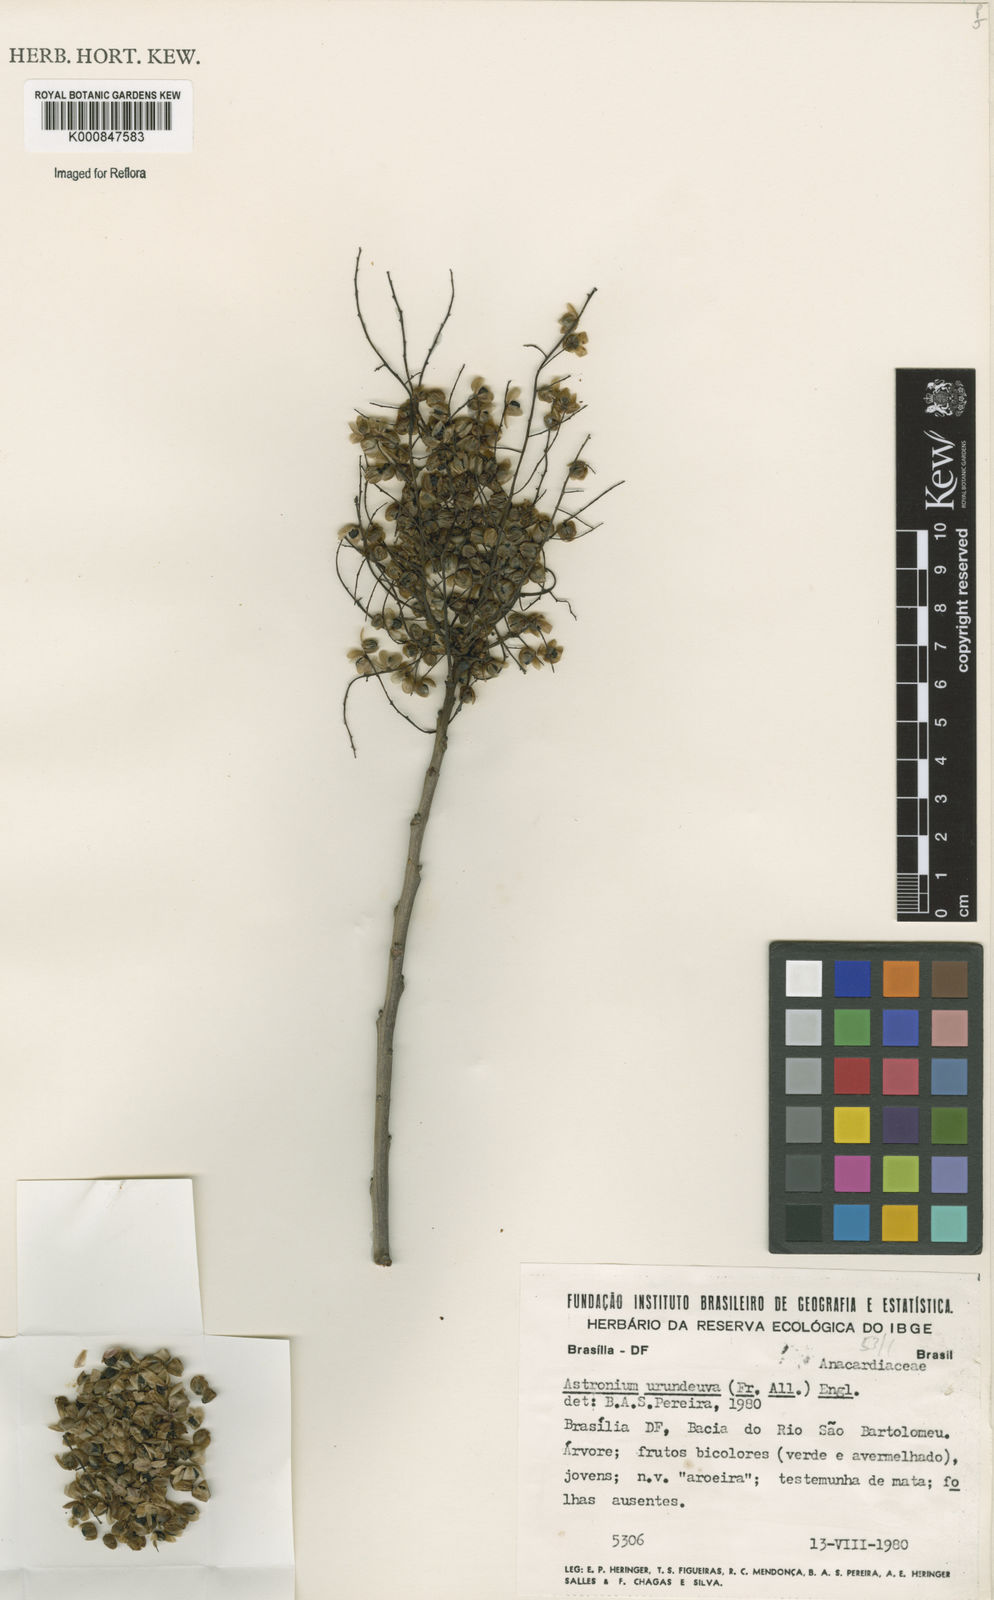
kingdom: Plantae
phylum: Tracheophyta
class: Magnoliopsida
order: Sapindales
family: Anacardiaceae
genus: Astronium
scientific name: Astronium
